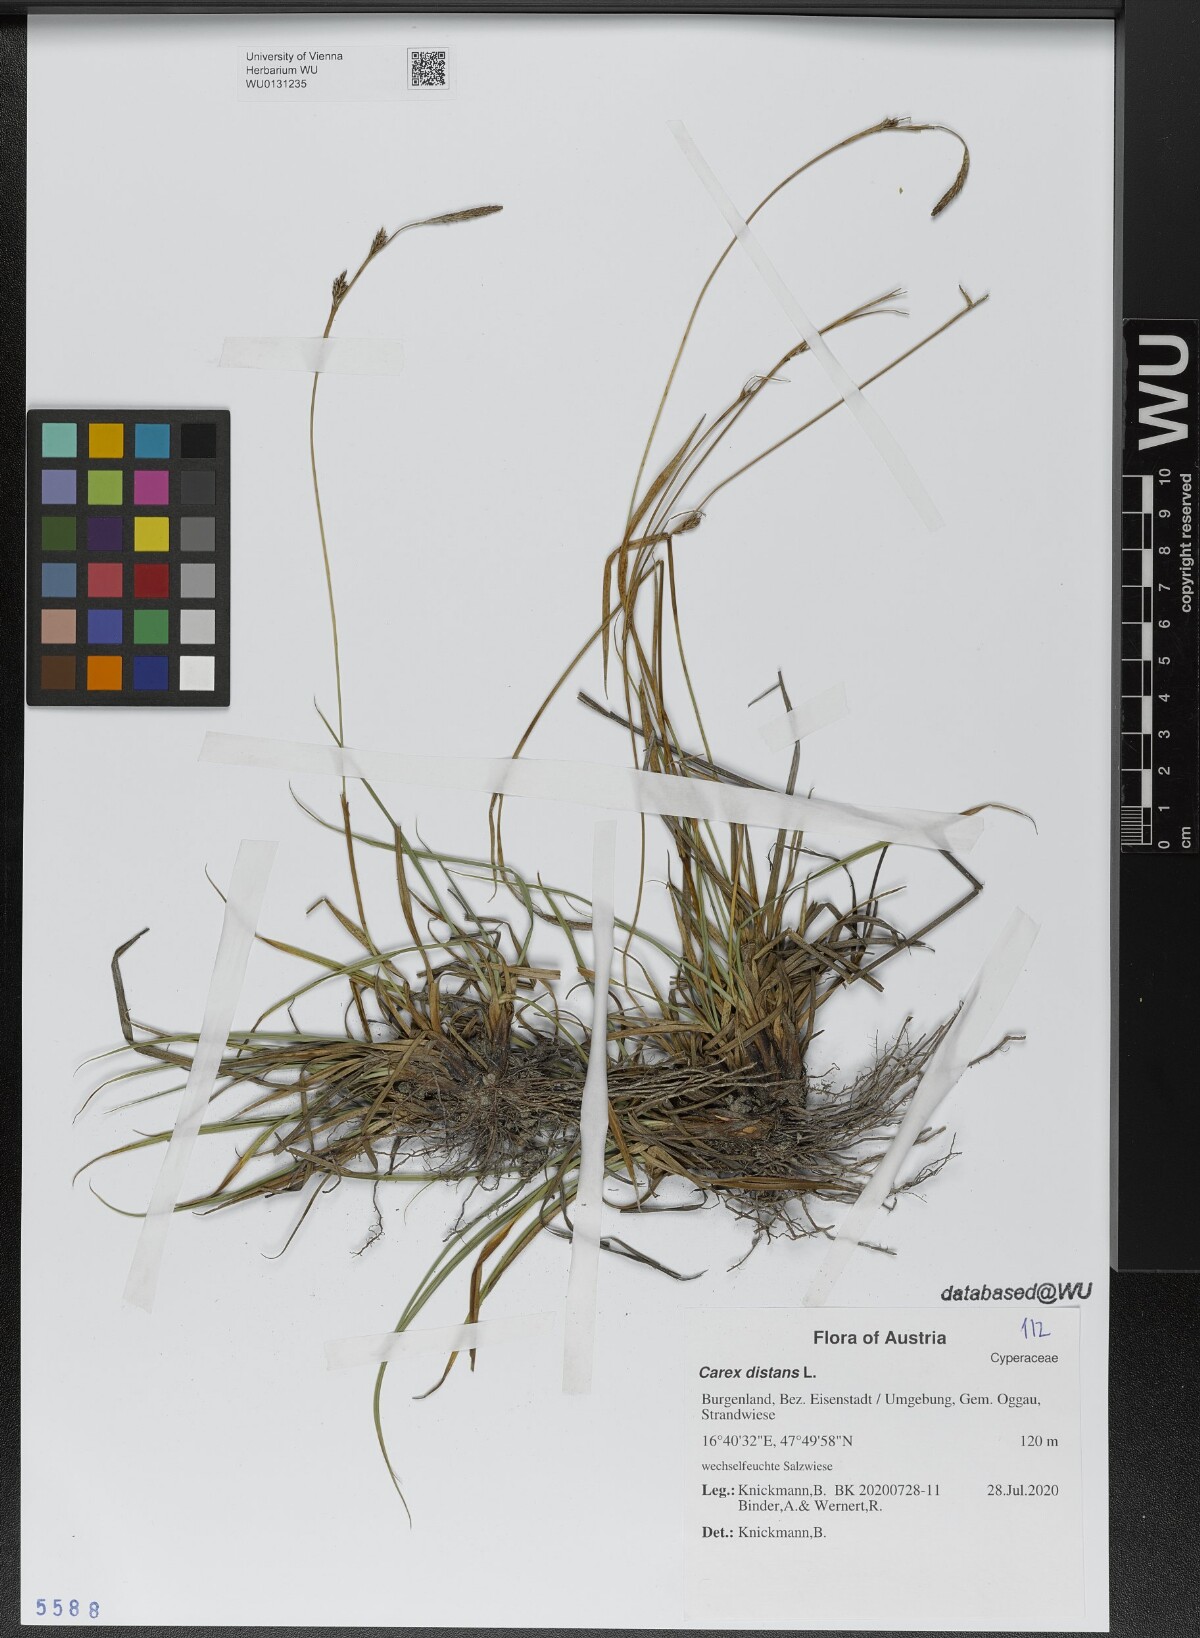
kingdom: Plantae
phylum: Tracheophyta
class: Liliopsida
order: Poales
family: Cyperaceae
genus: Carex
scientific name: Carex distans
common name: Distant sedge
